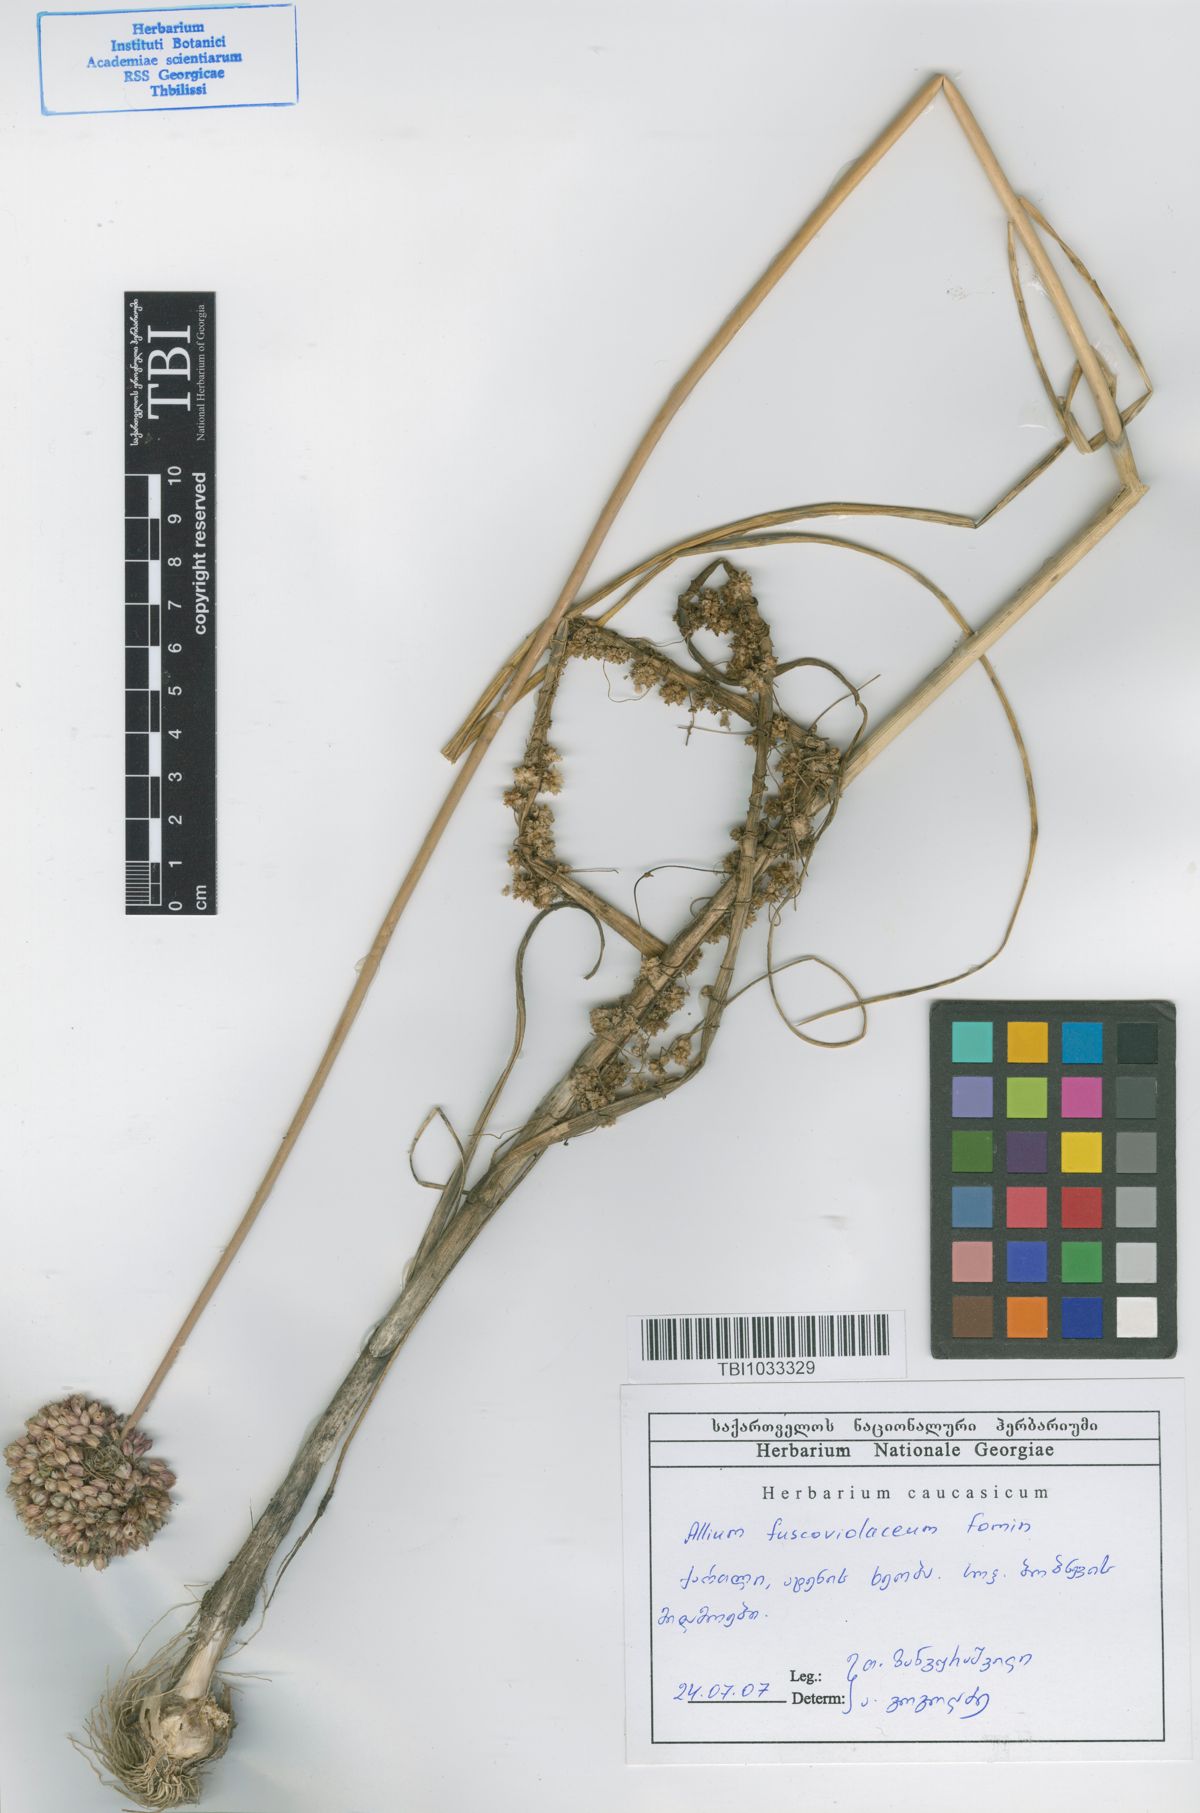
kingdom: Plantae
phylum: Tracheophyta
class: Liliopsida
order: Asparagales
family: Amaryllidaceae
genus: Allium
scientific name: Allium fuscoviolaceum
